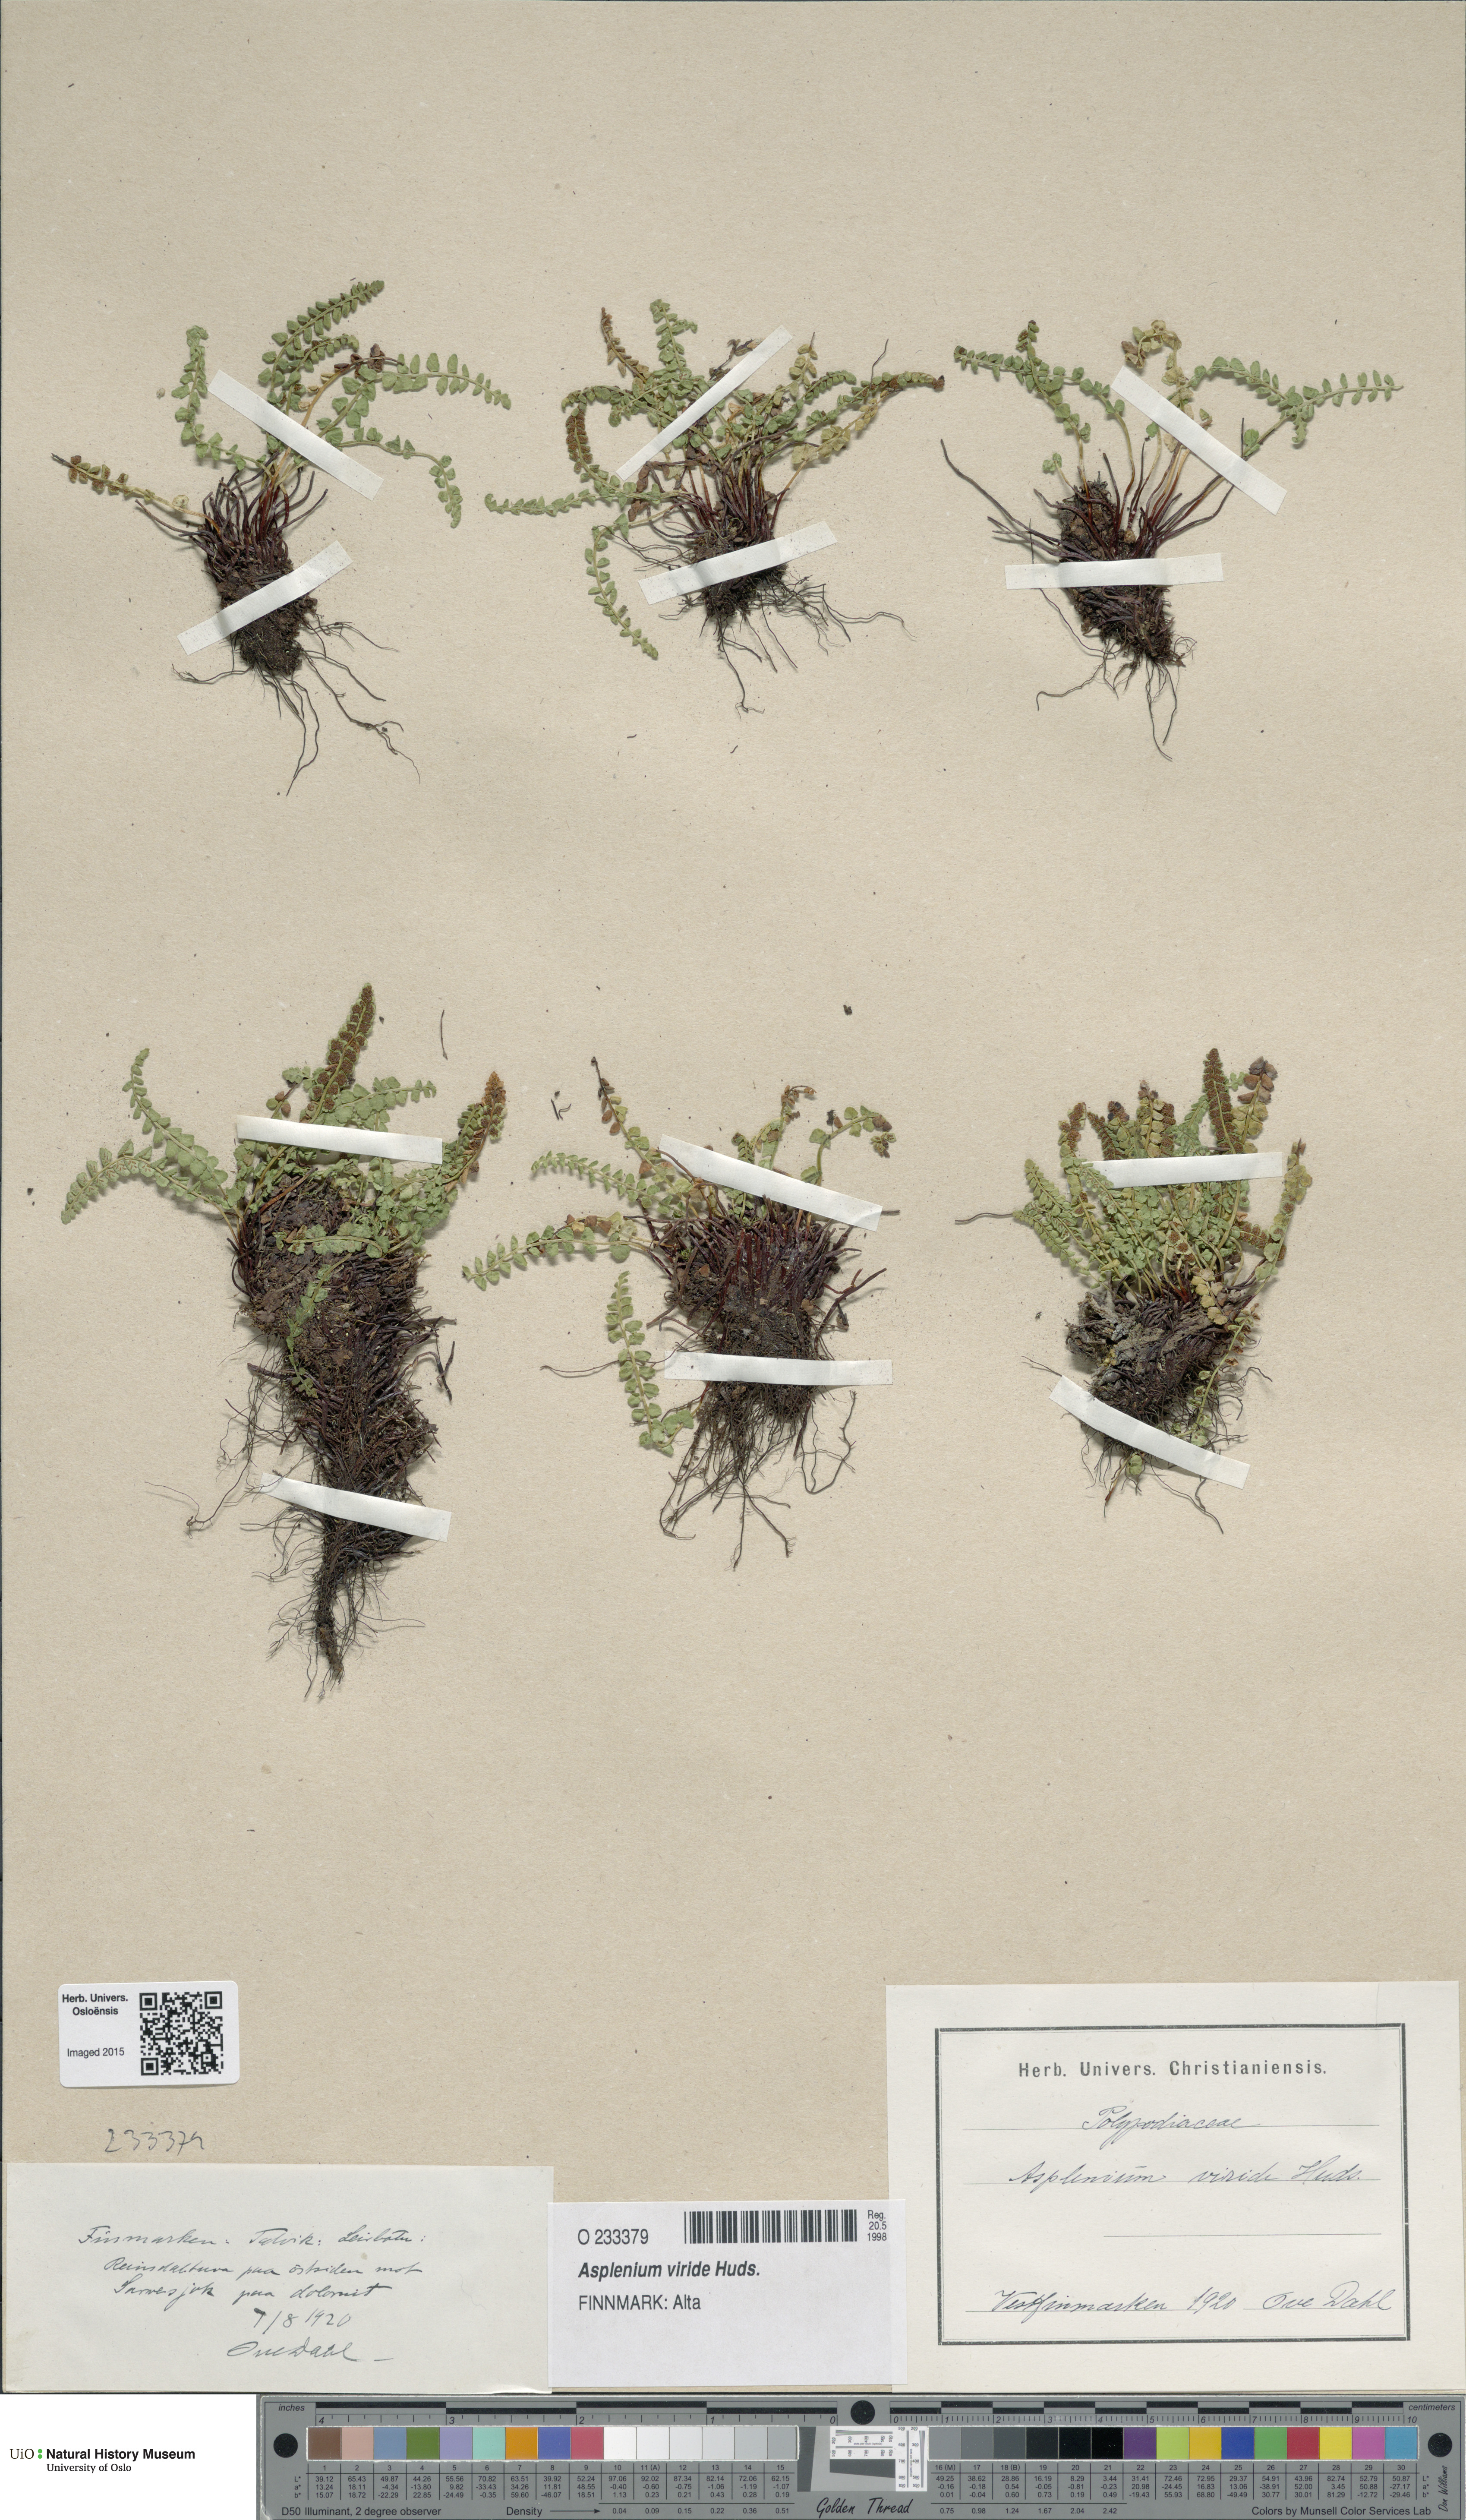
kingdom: Plantae
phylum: Tracheophyta
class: Polypodiopsida
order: Polypodiales
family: Aspleniaceae
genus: Asplenium
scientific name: Asplenium viride
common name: Green spleenwort
